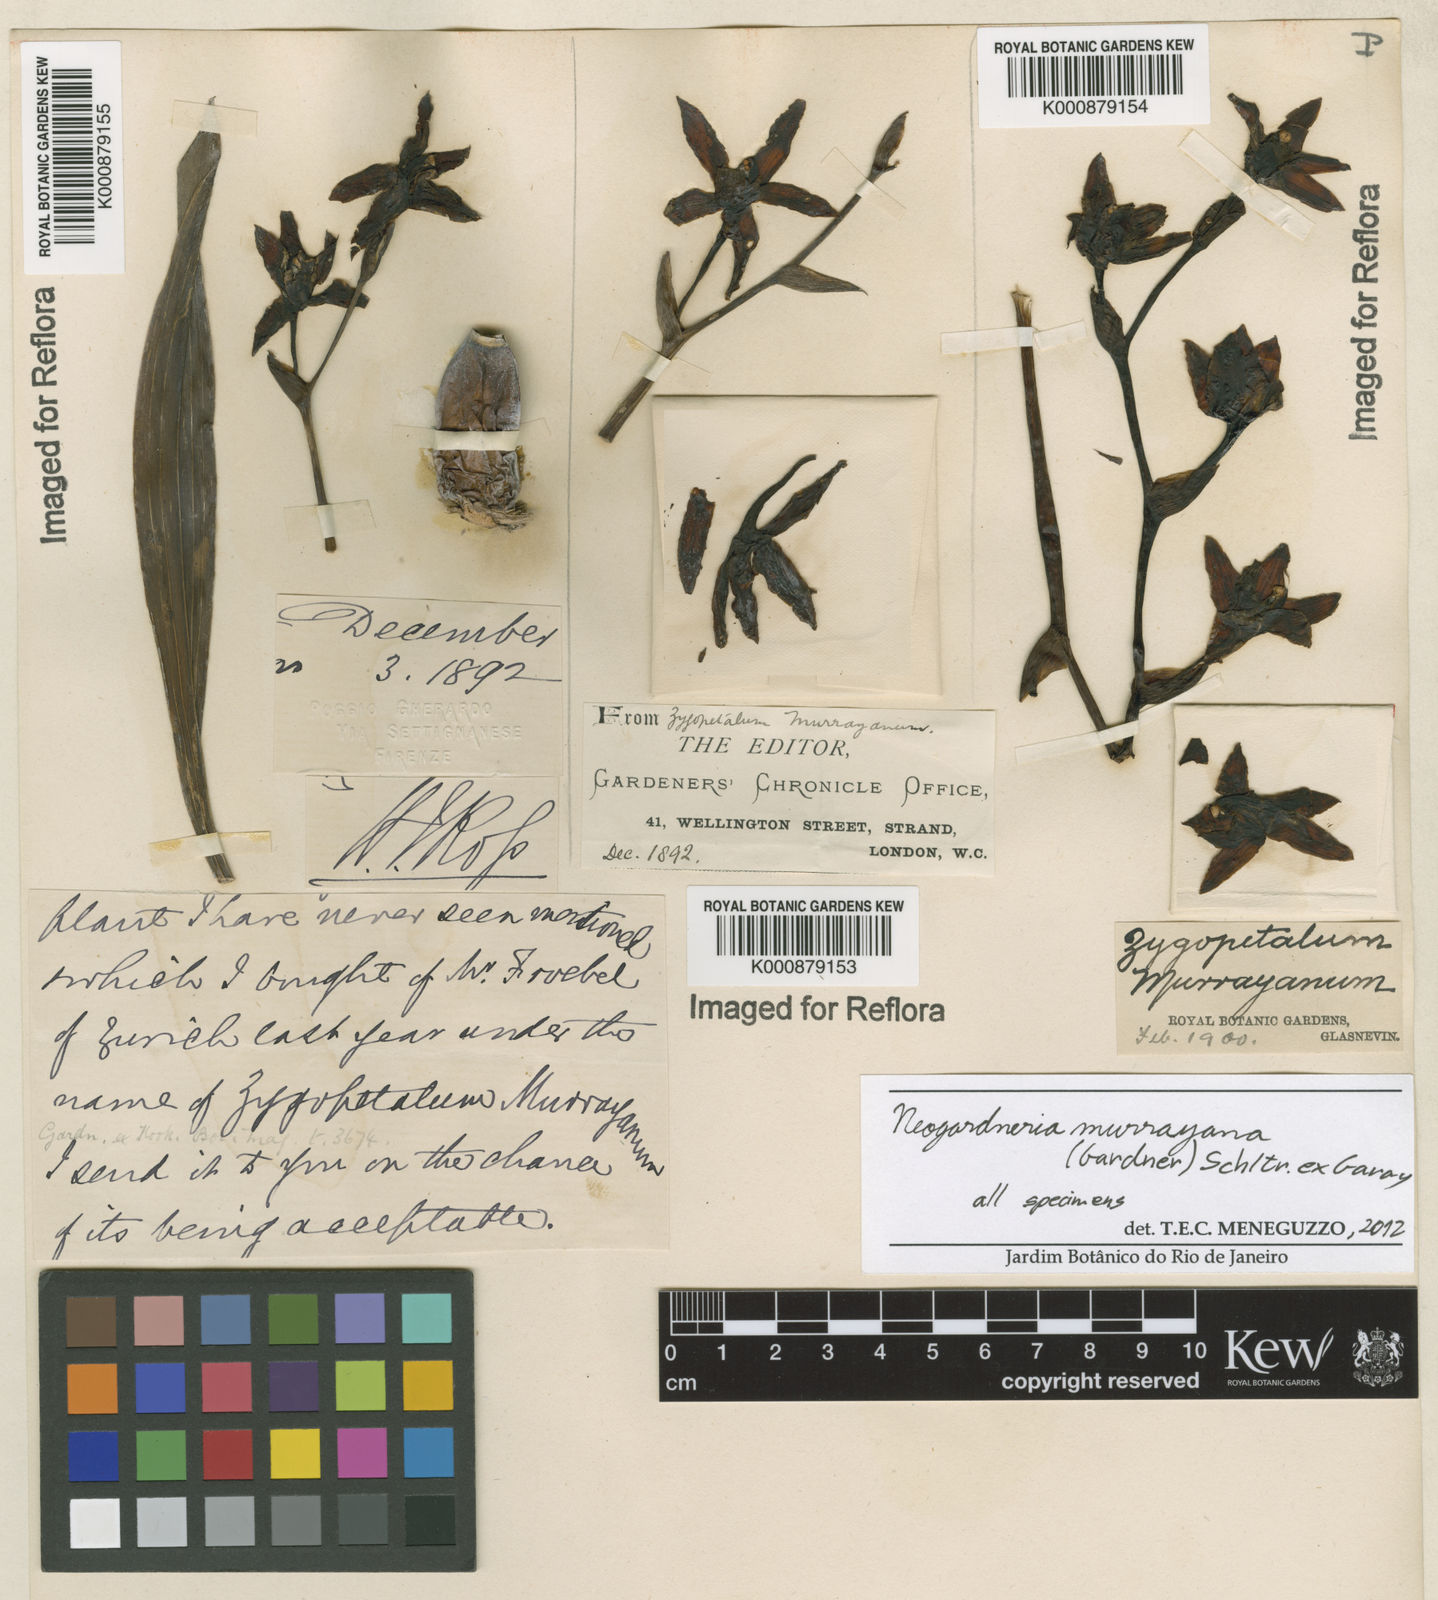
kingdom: Plantae
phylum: Tracheophyta
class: Liliopsida
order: Asparagales
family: Orchidaceae
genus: Neogardneria
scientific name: Neogardneria murrayana
